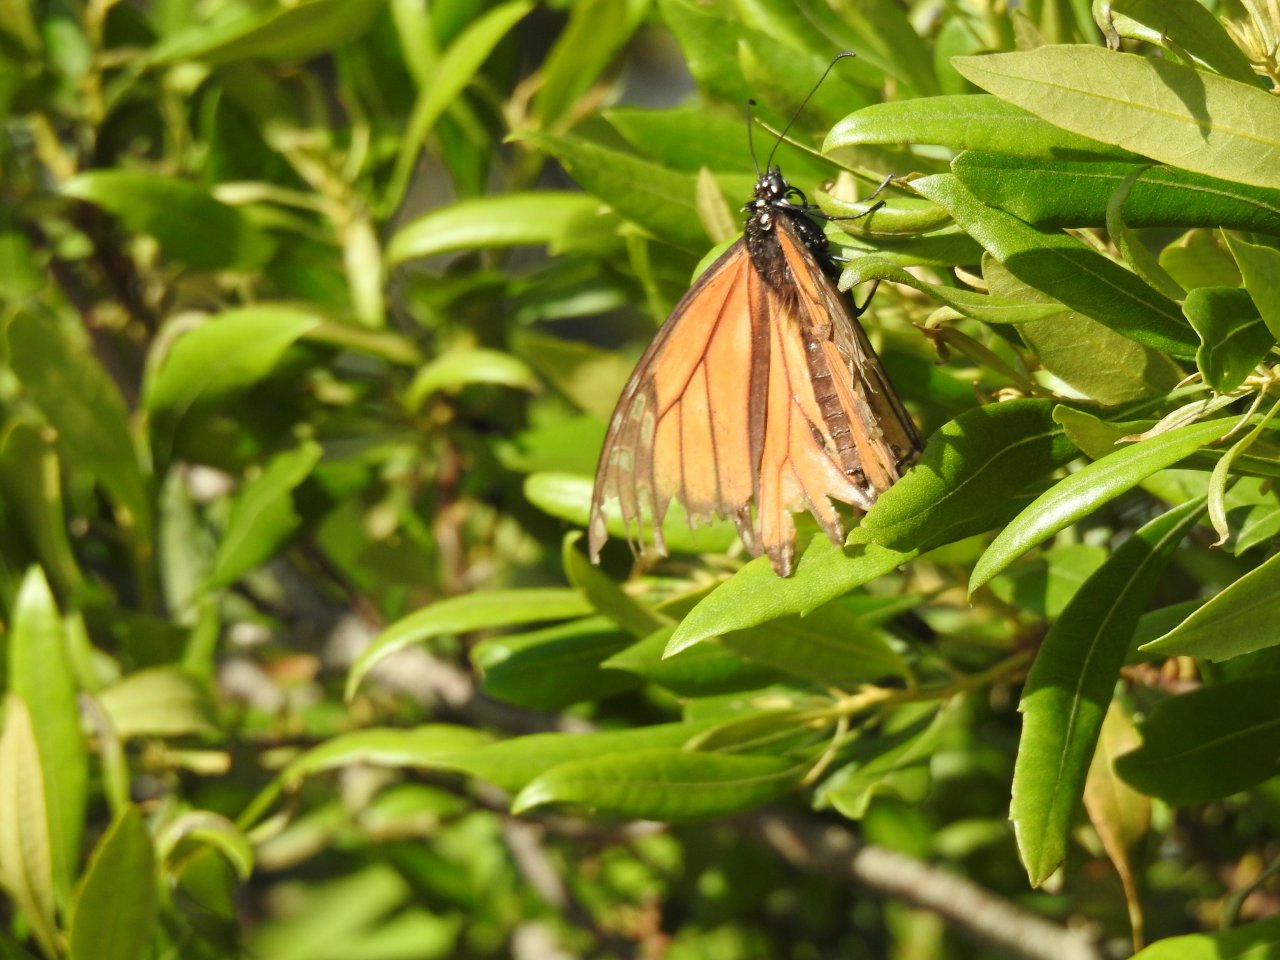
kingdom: Animalia
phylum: Arthropoda
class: Insecta
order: Lepidoptera
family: Nymphalidae
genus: Danaus
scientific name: Danaus plexippus
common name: Monarch
